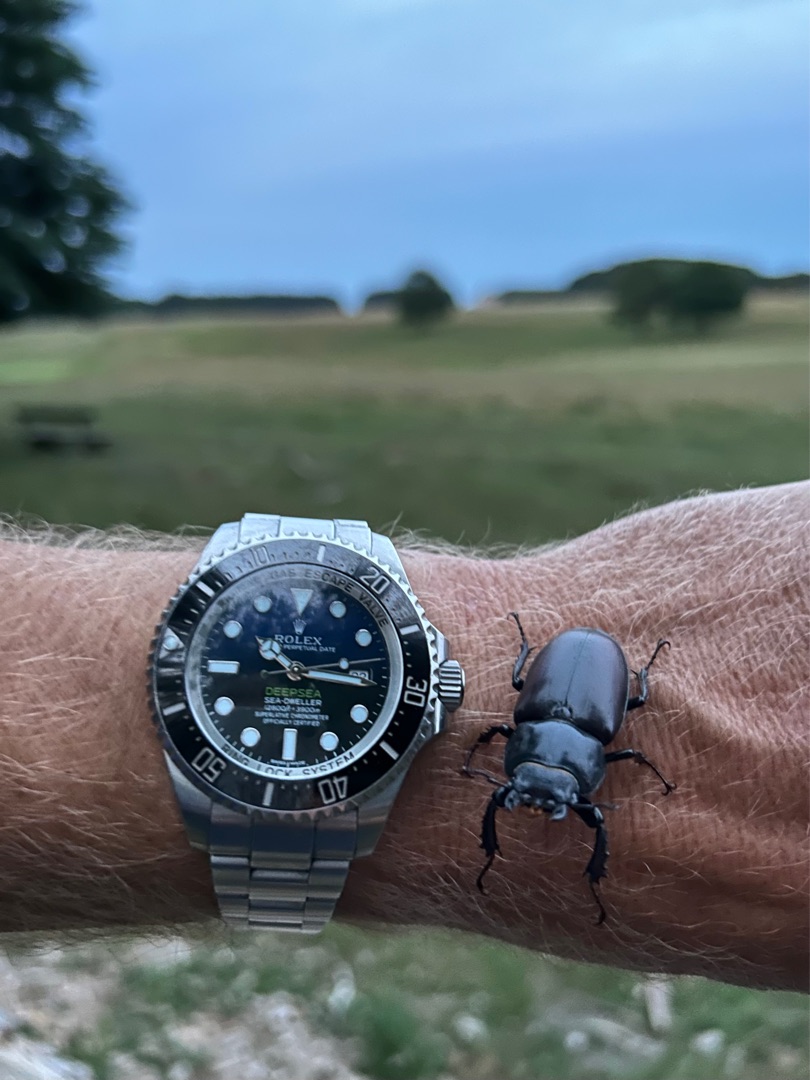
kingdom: Animalia
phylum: Arthropoda
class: Insecta
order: Coleoptera
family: Lucanidae
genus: Lucanus
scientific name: Lucanus cervus
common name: Eghjort
